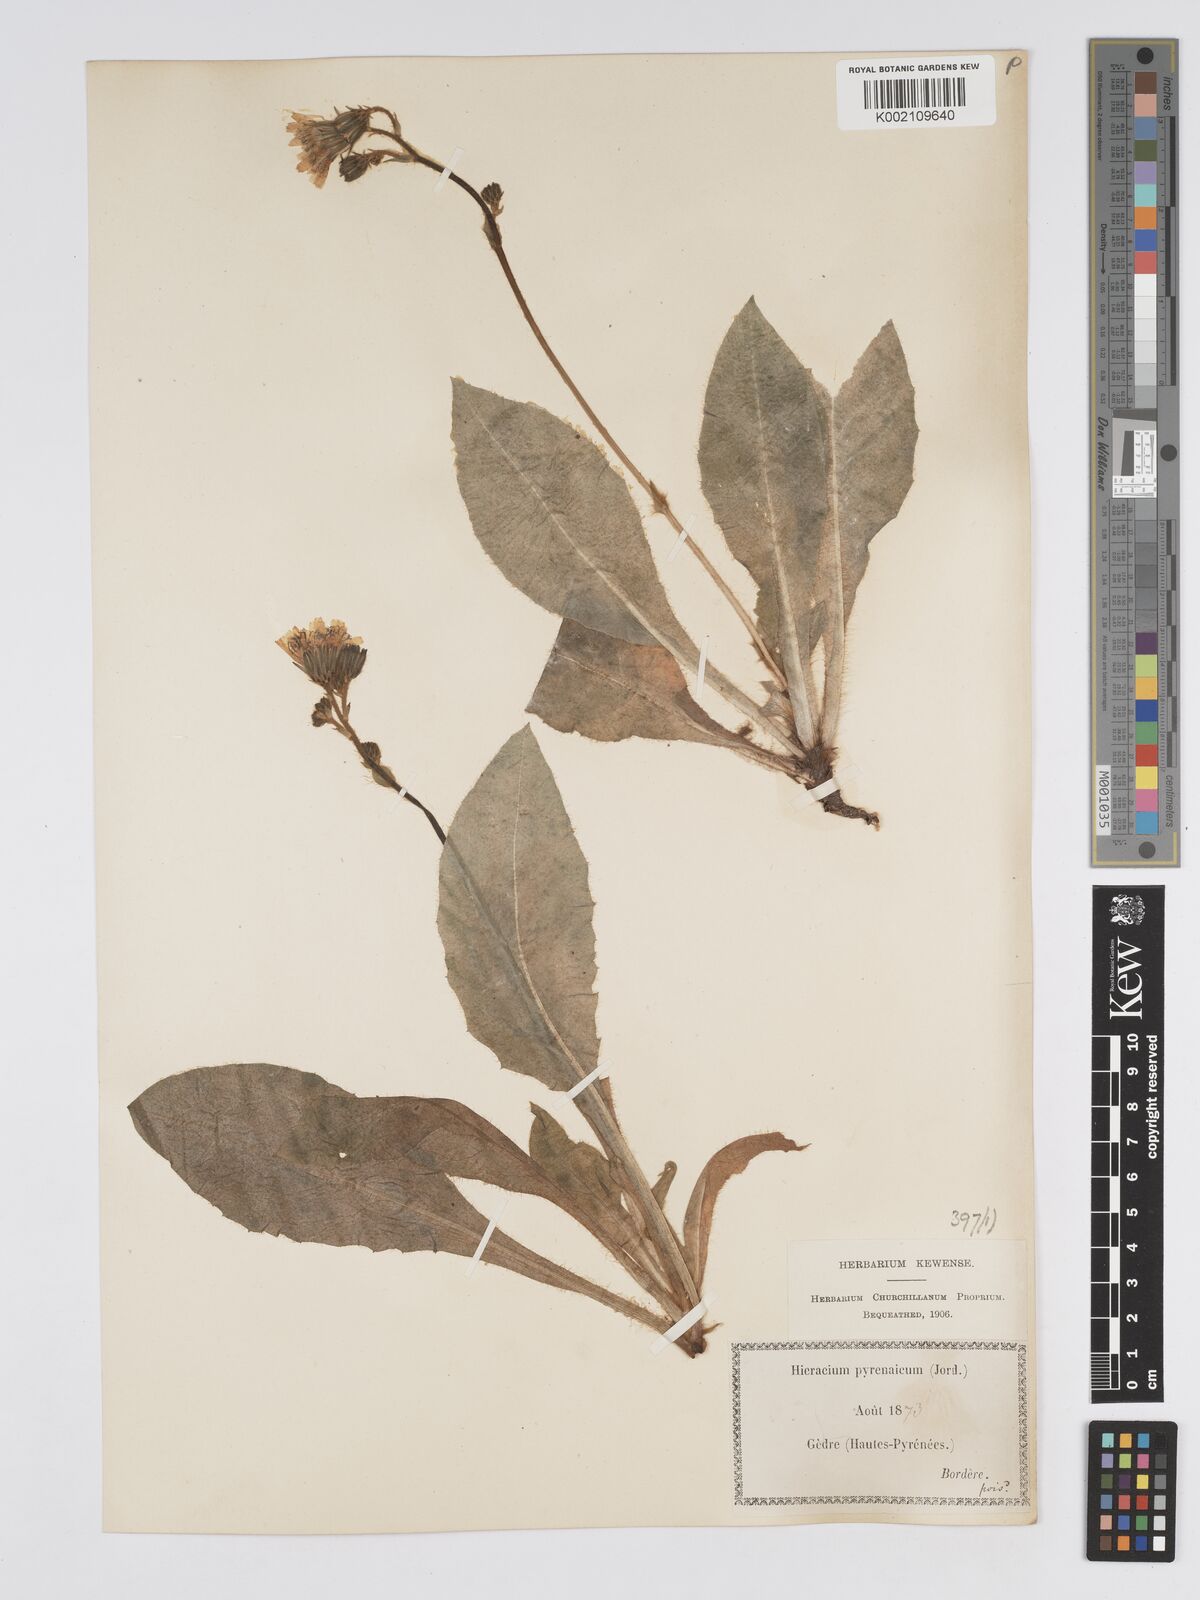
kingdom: Plantae
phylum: Tracheophyta
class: Magnoliopsida
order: Asterales
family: Asteraceae
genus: Hieracium
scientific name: Hieracium nobile
